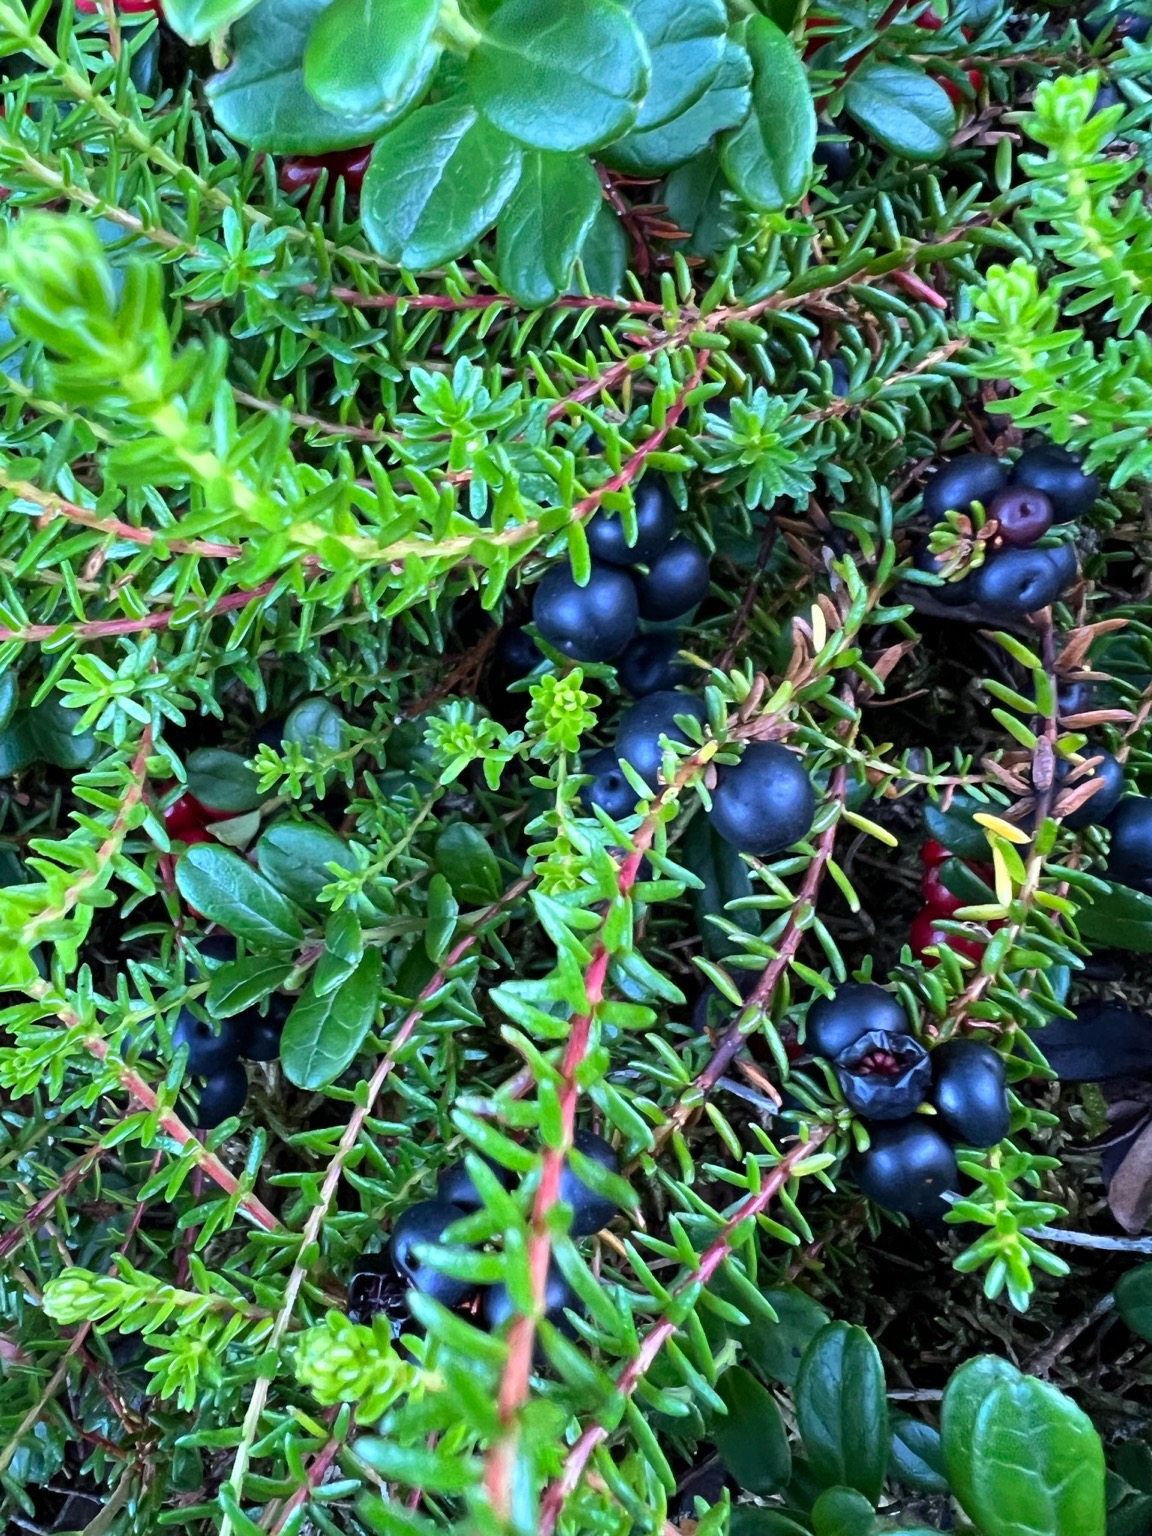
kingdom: Plantae
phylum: Tracheophyta
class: Magnoliopsida
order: Ericales
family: Ericaceae
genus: Empetrum
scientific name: Empetrum nigrum
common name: Revling
